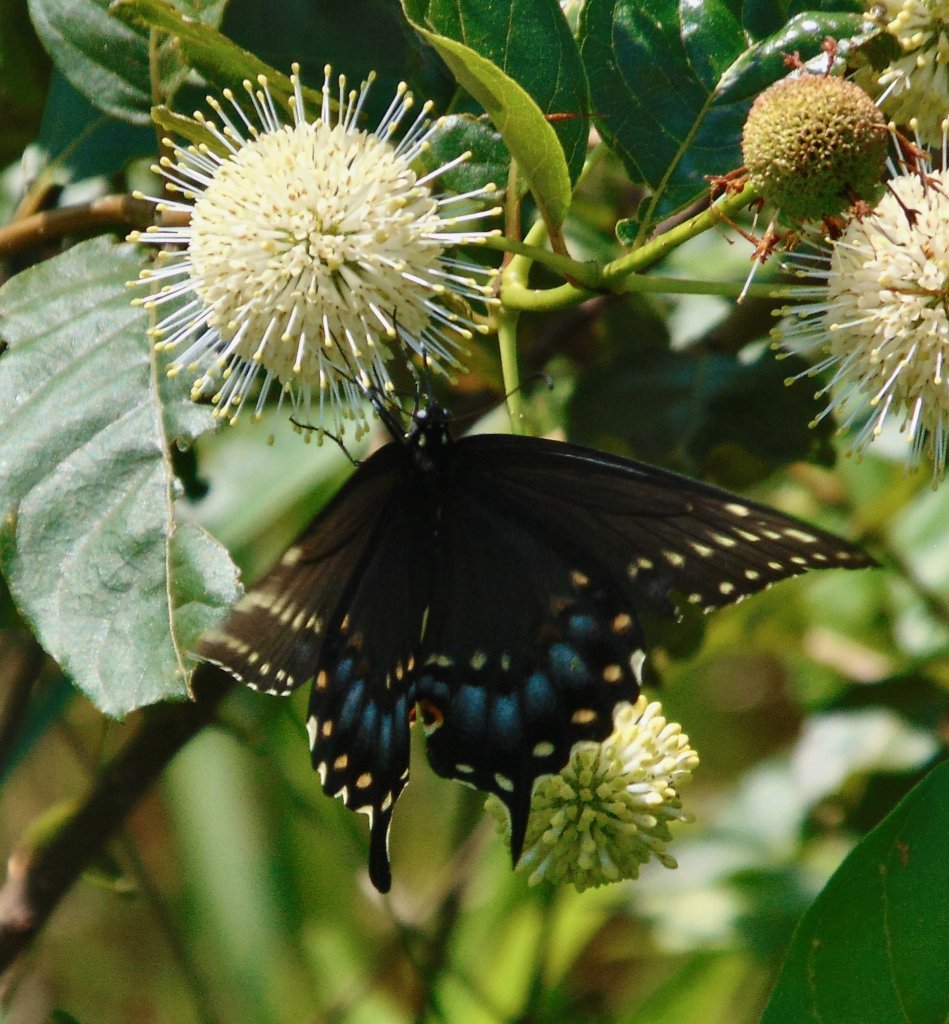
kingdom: Animalia
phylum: Arthropoda
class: Insecta
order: Lepidoptera
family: Papilionidae
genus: Papilio
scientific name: Papilio polyxenes
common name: Black Swallowtail
